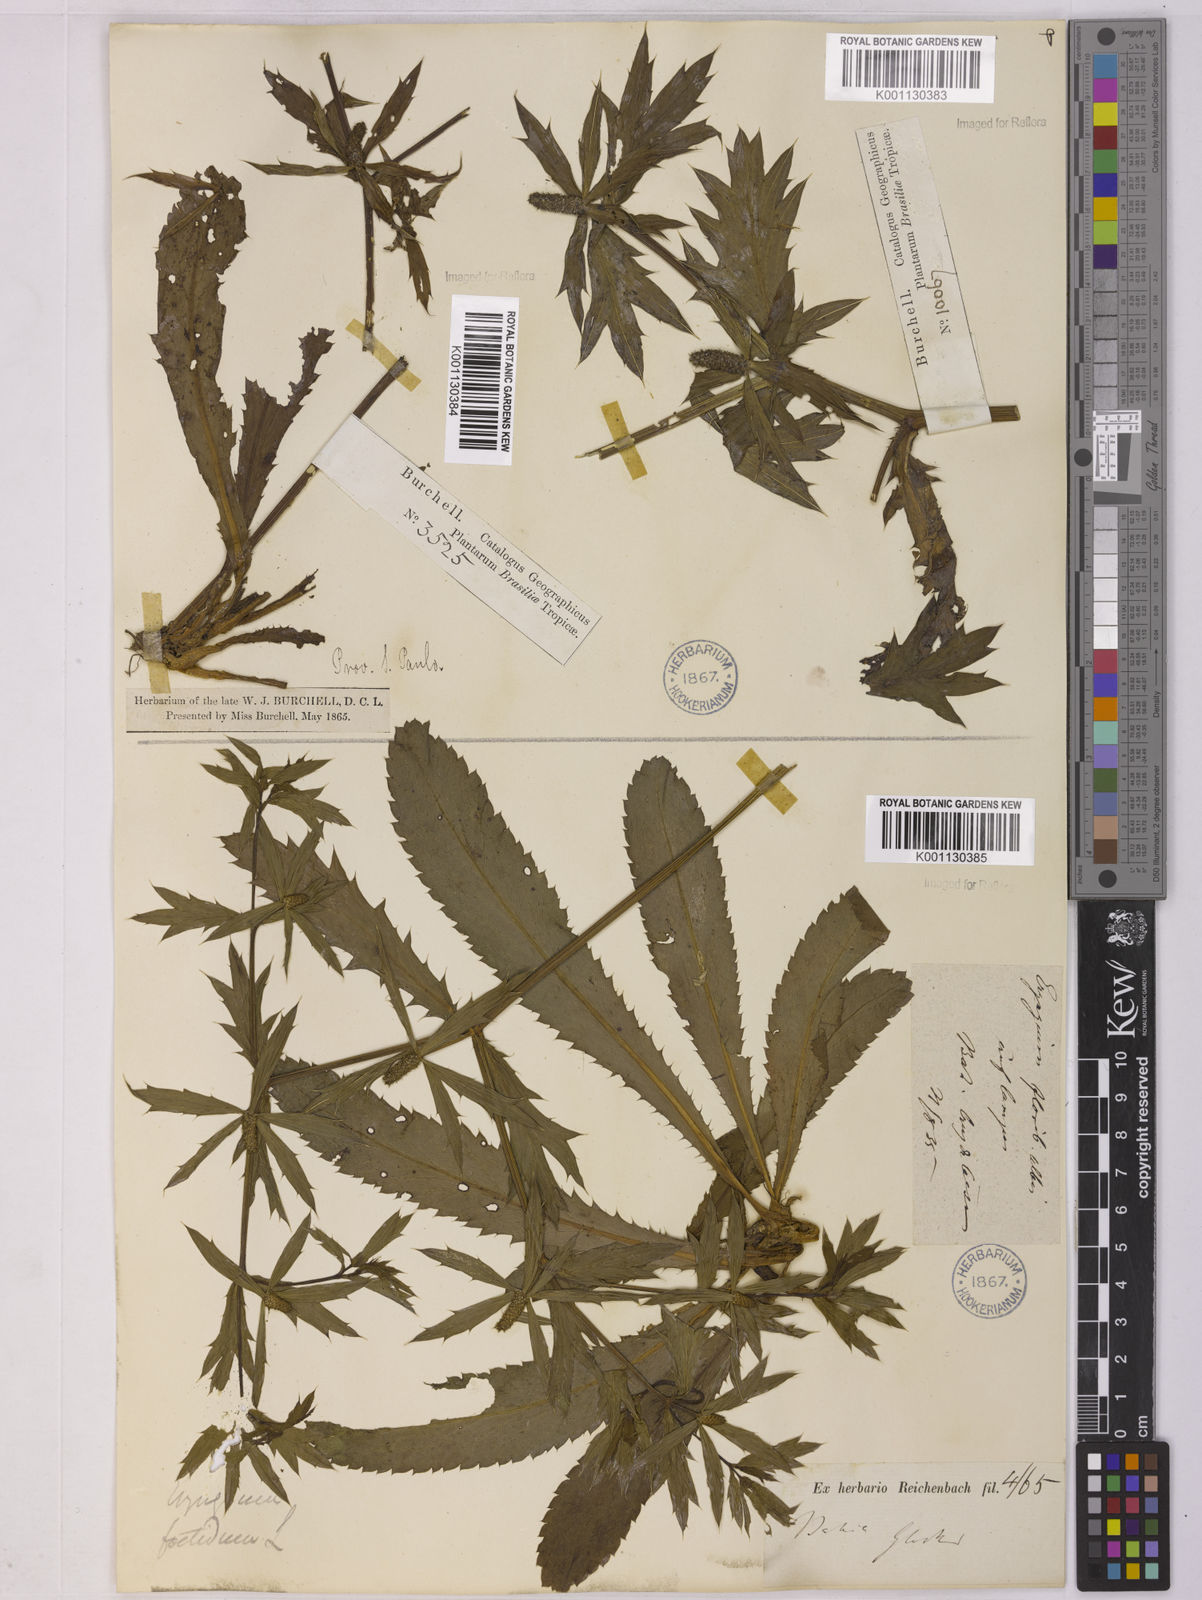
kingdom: Plantae
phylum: Tracheophyta
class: Magnoliopsida
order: Apiales
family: Apiaceae
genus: Eryngium
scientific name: Eryngium foetidum
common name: Fitweed
